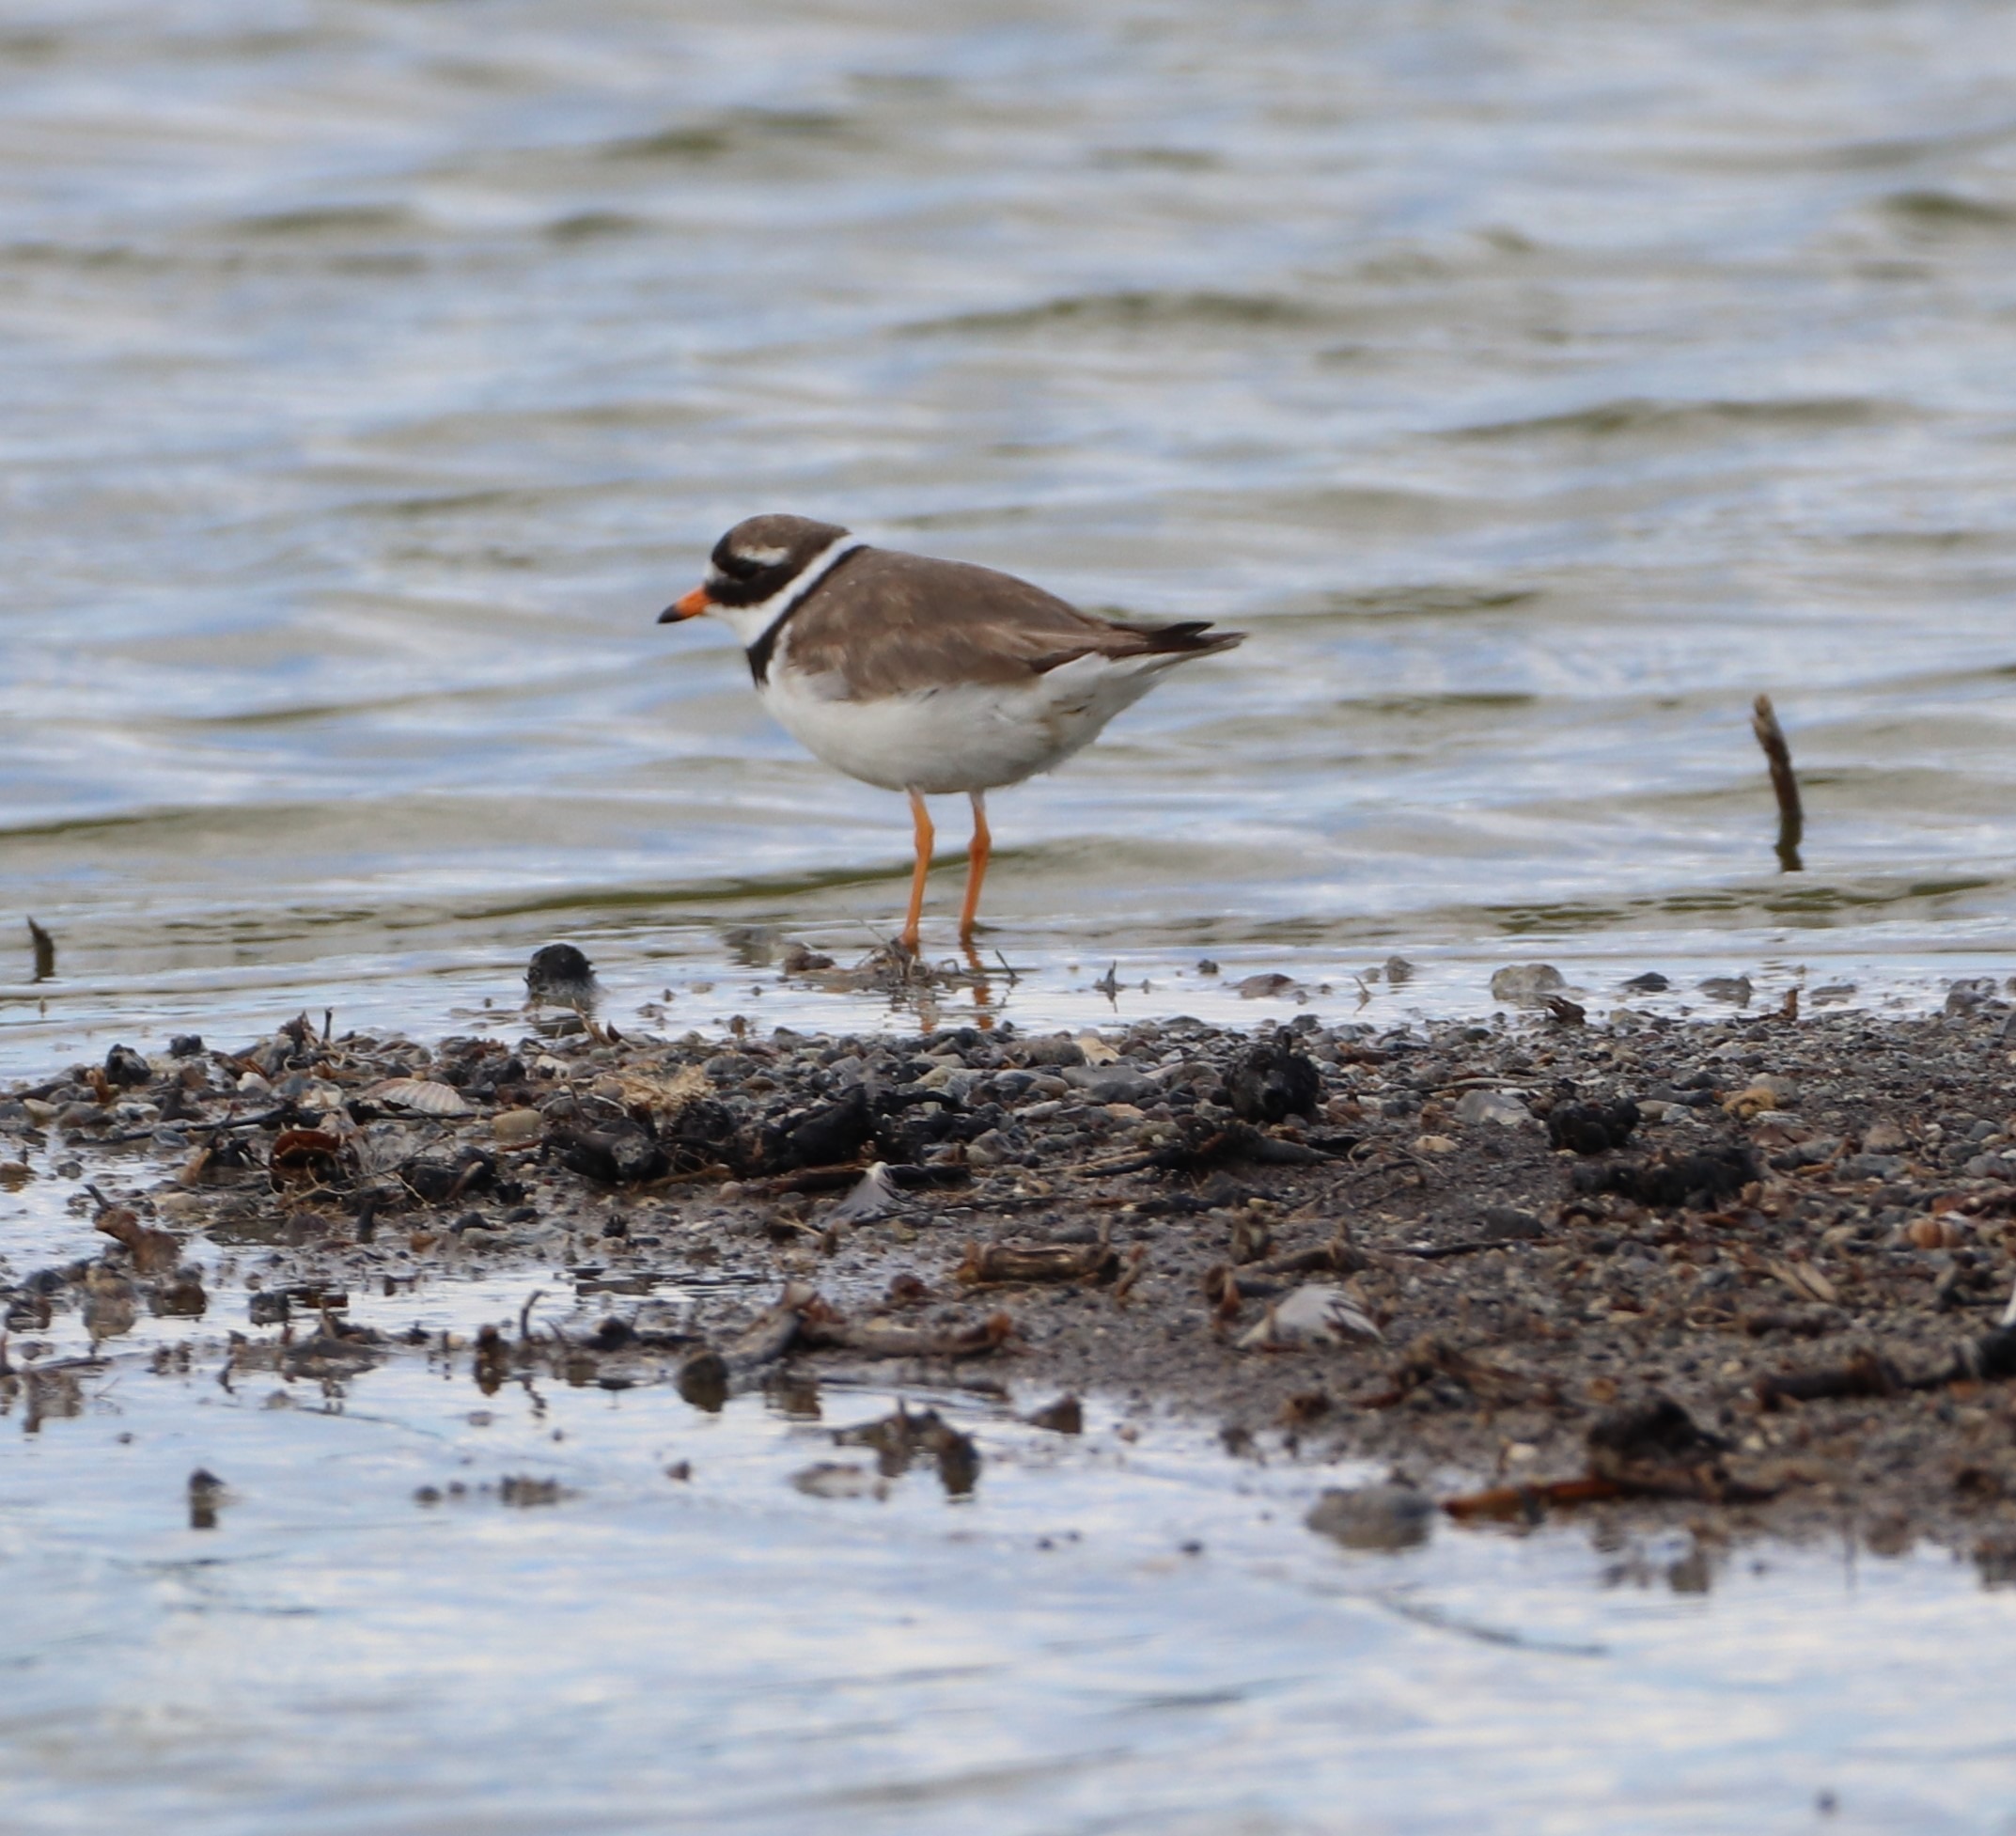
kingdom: Animalia
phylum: Chordata
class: Aves
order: Charadriiformes
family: Charadriidae
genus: Charadrius
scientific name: Charadrius hiaticula
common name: Stor præstekrave
